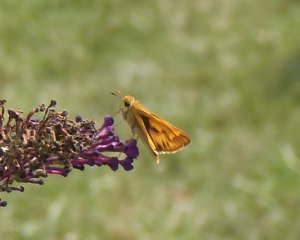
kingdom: Animalia
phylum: Arthropoda
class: Insecta
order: Lepidoptera
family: Hesperiidae
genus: Hylephila
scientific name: Hylephila phyleus
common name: Fiery Skipper
